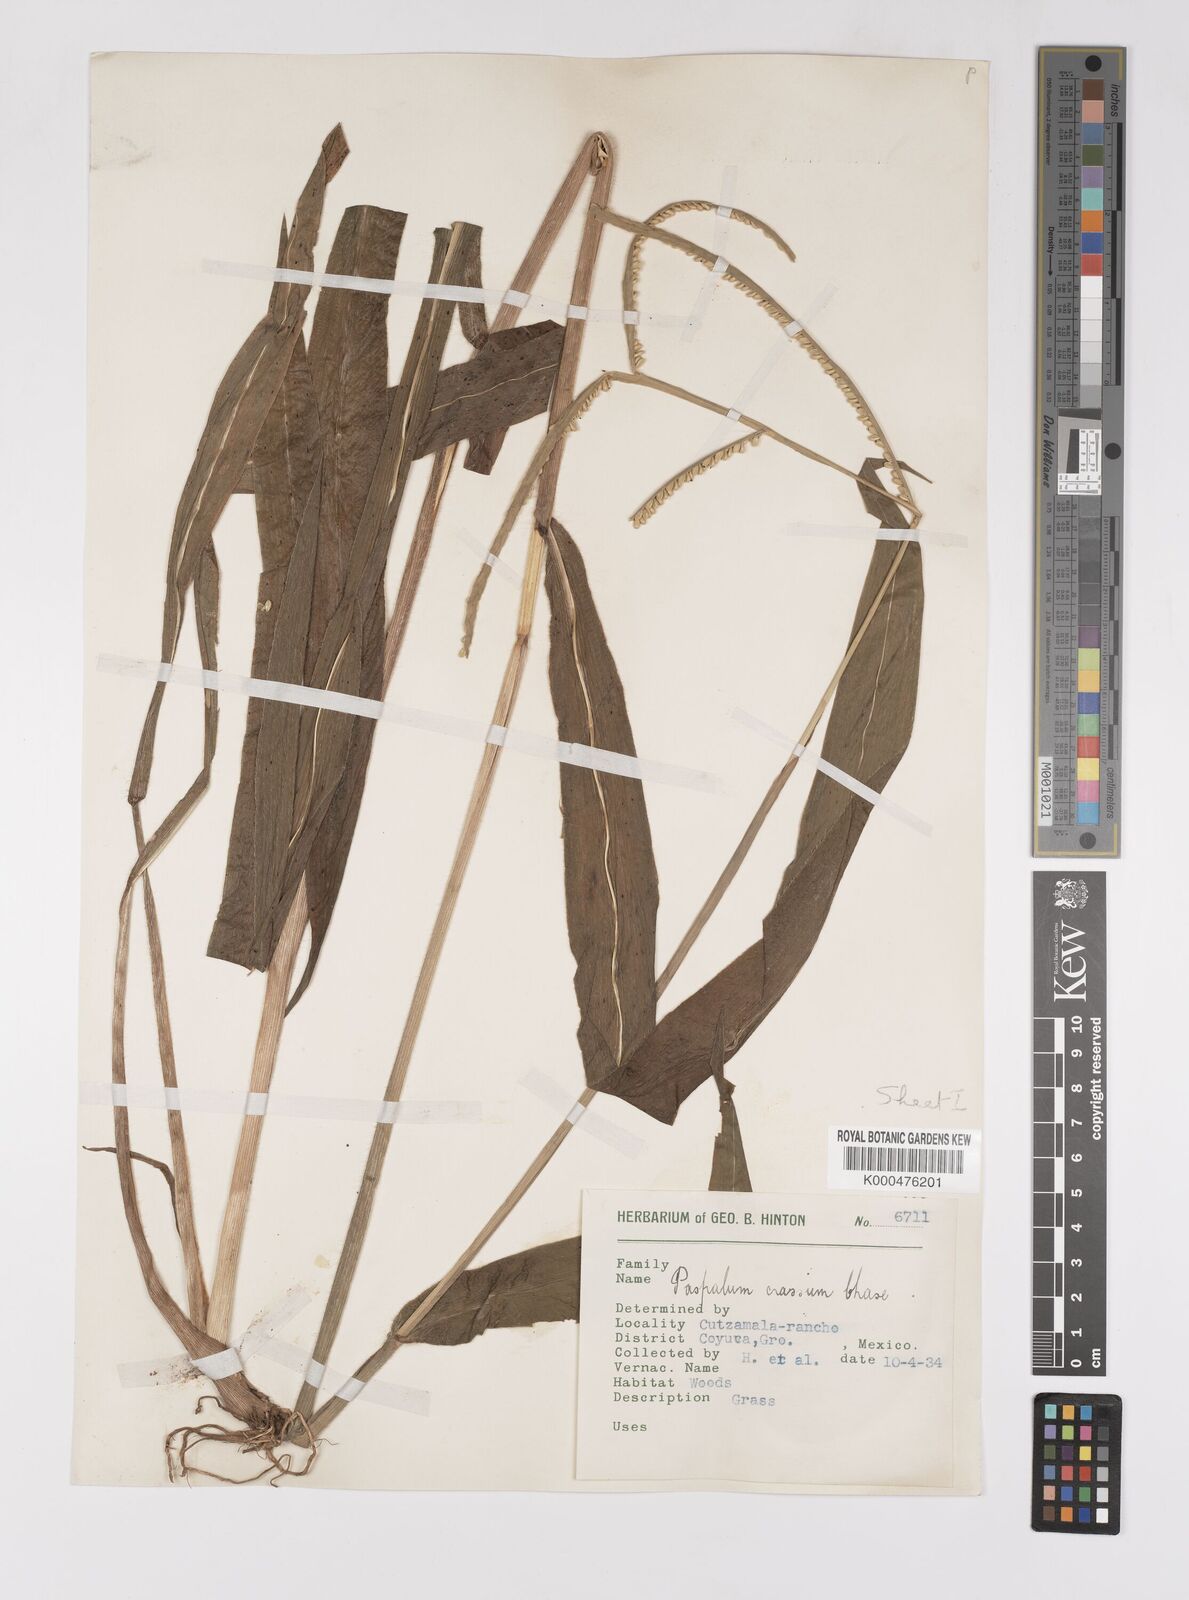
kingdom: Plantae
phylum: Tracheophyta
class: Liliopsida
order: Poales
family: Poaceae
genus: Paspalum
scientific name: Paspalum crassum
